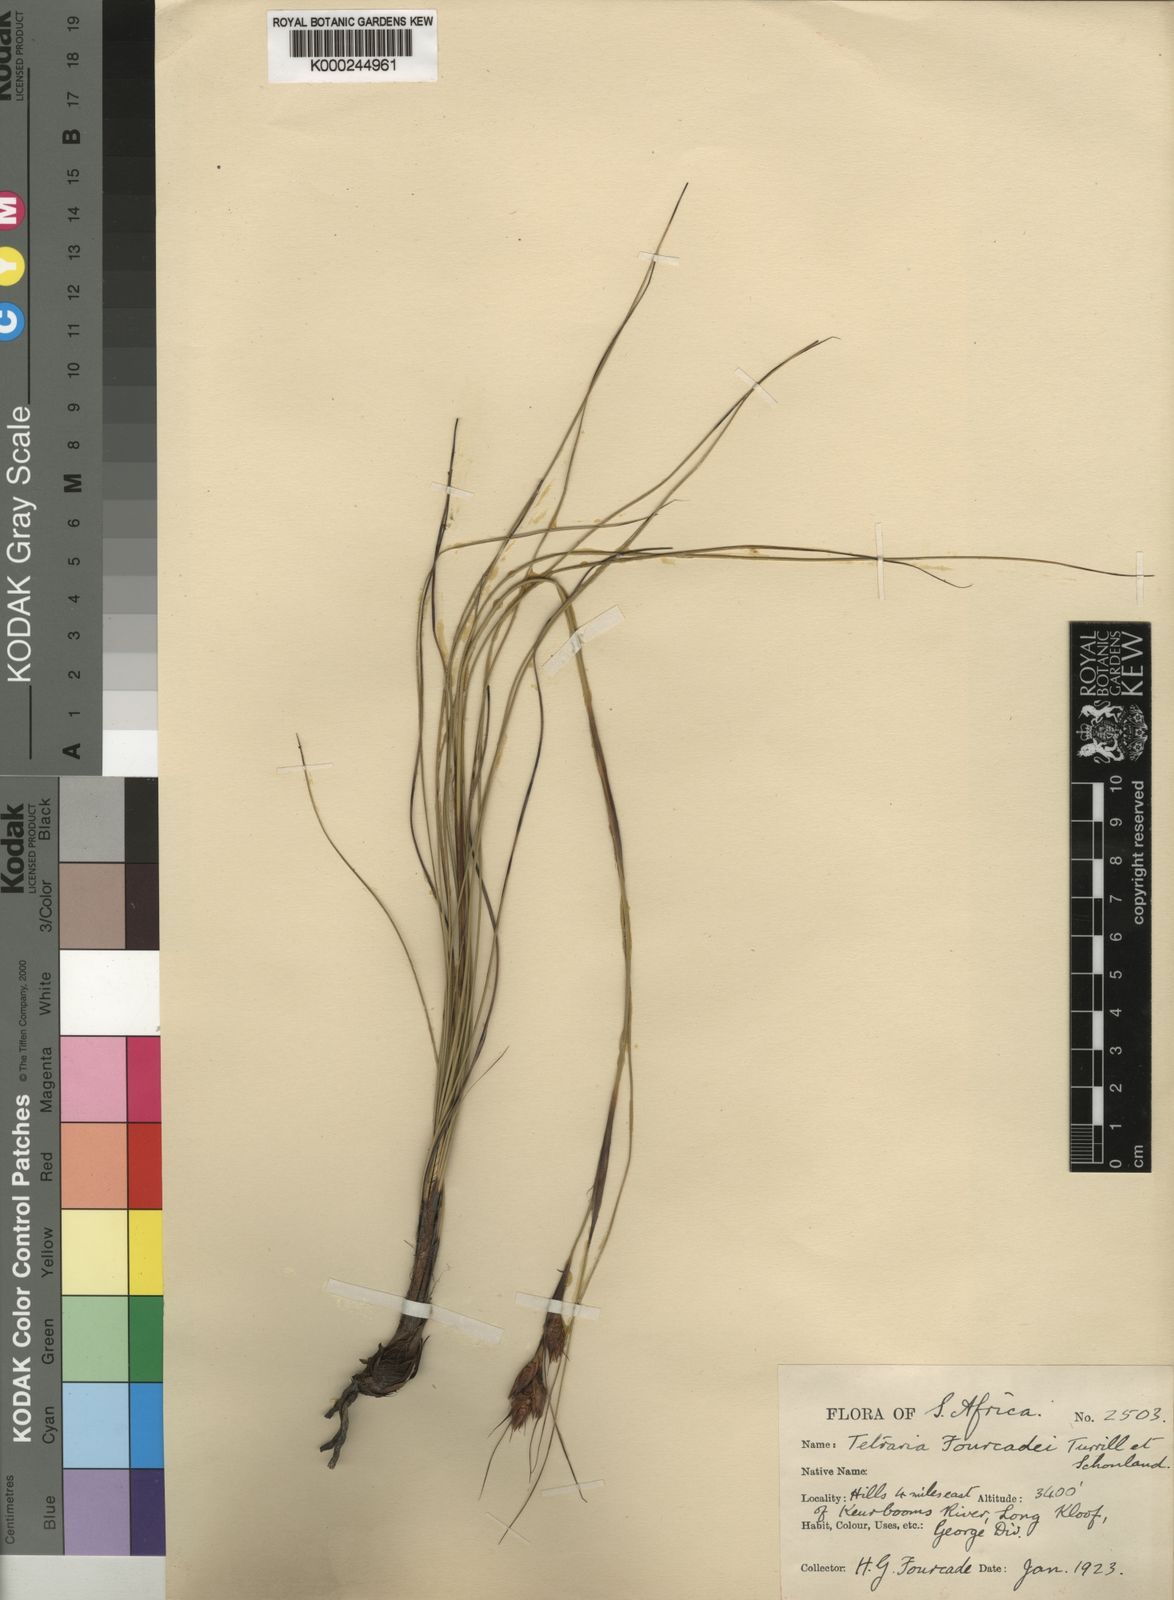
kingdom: Plantae
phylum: Tracheophyta
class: Liliopsida
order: Poales
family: Cyperaceae
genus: Tetraria
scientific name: Tetraria
